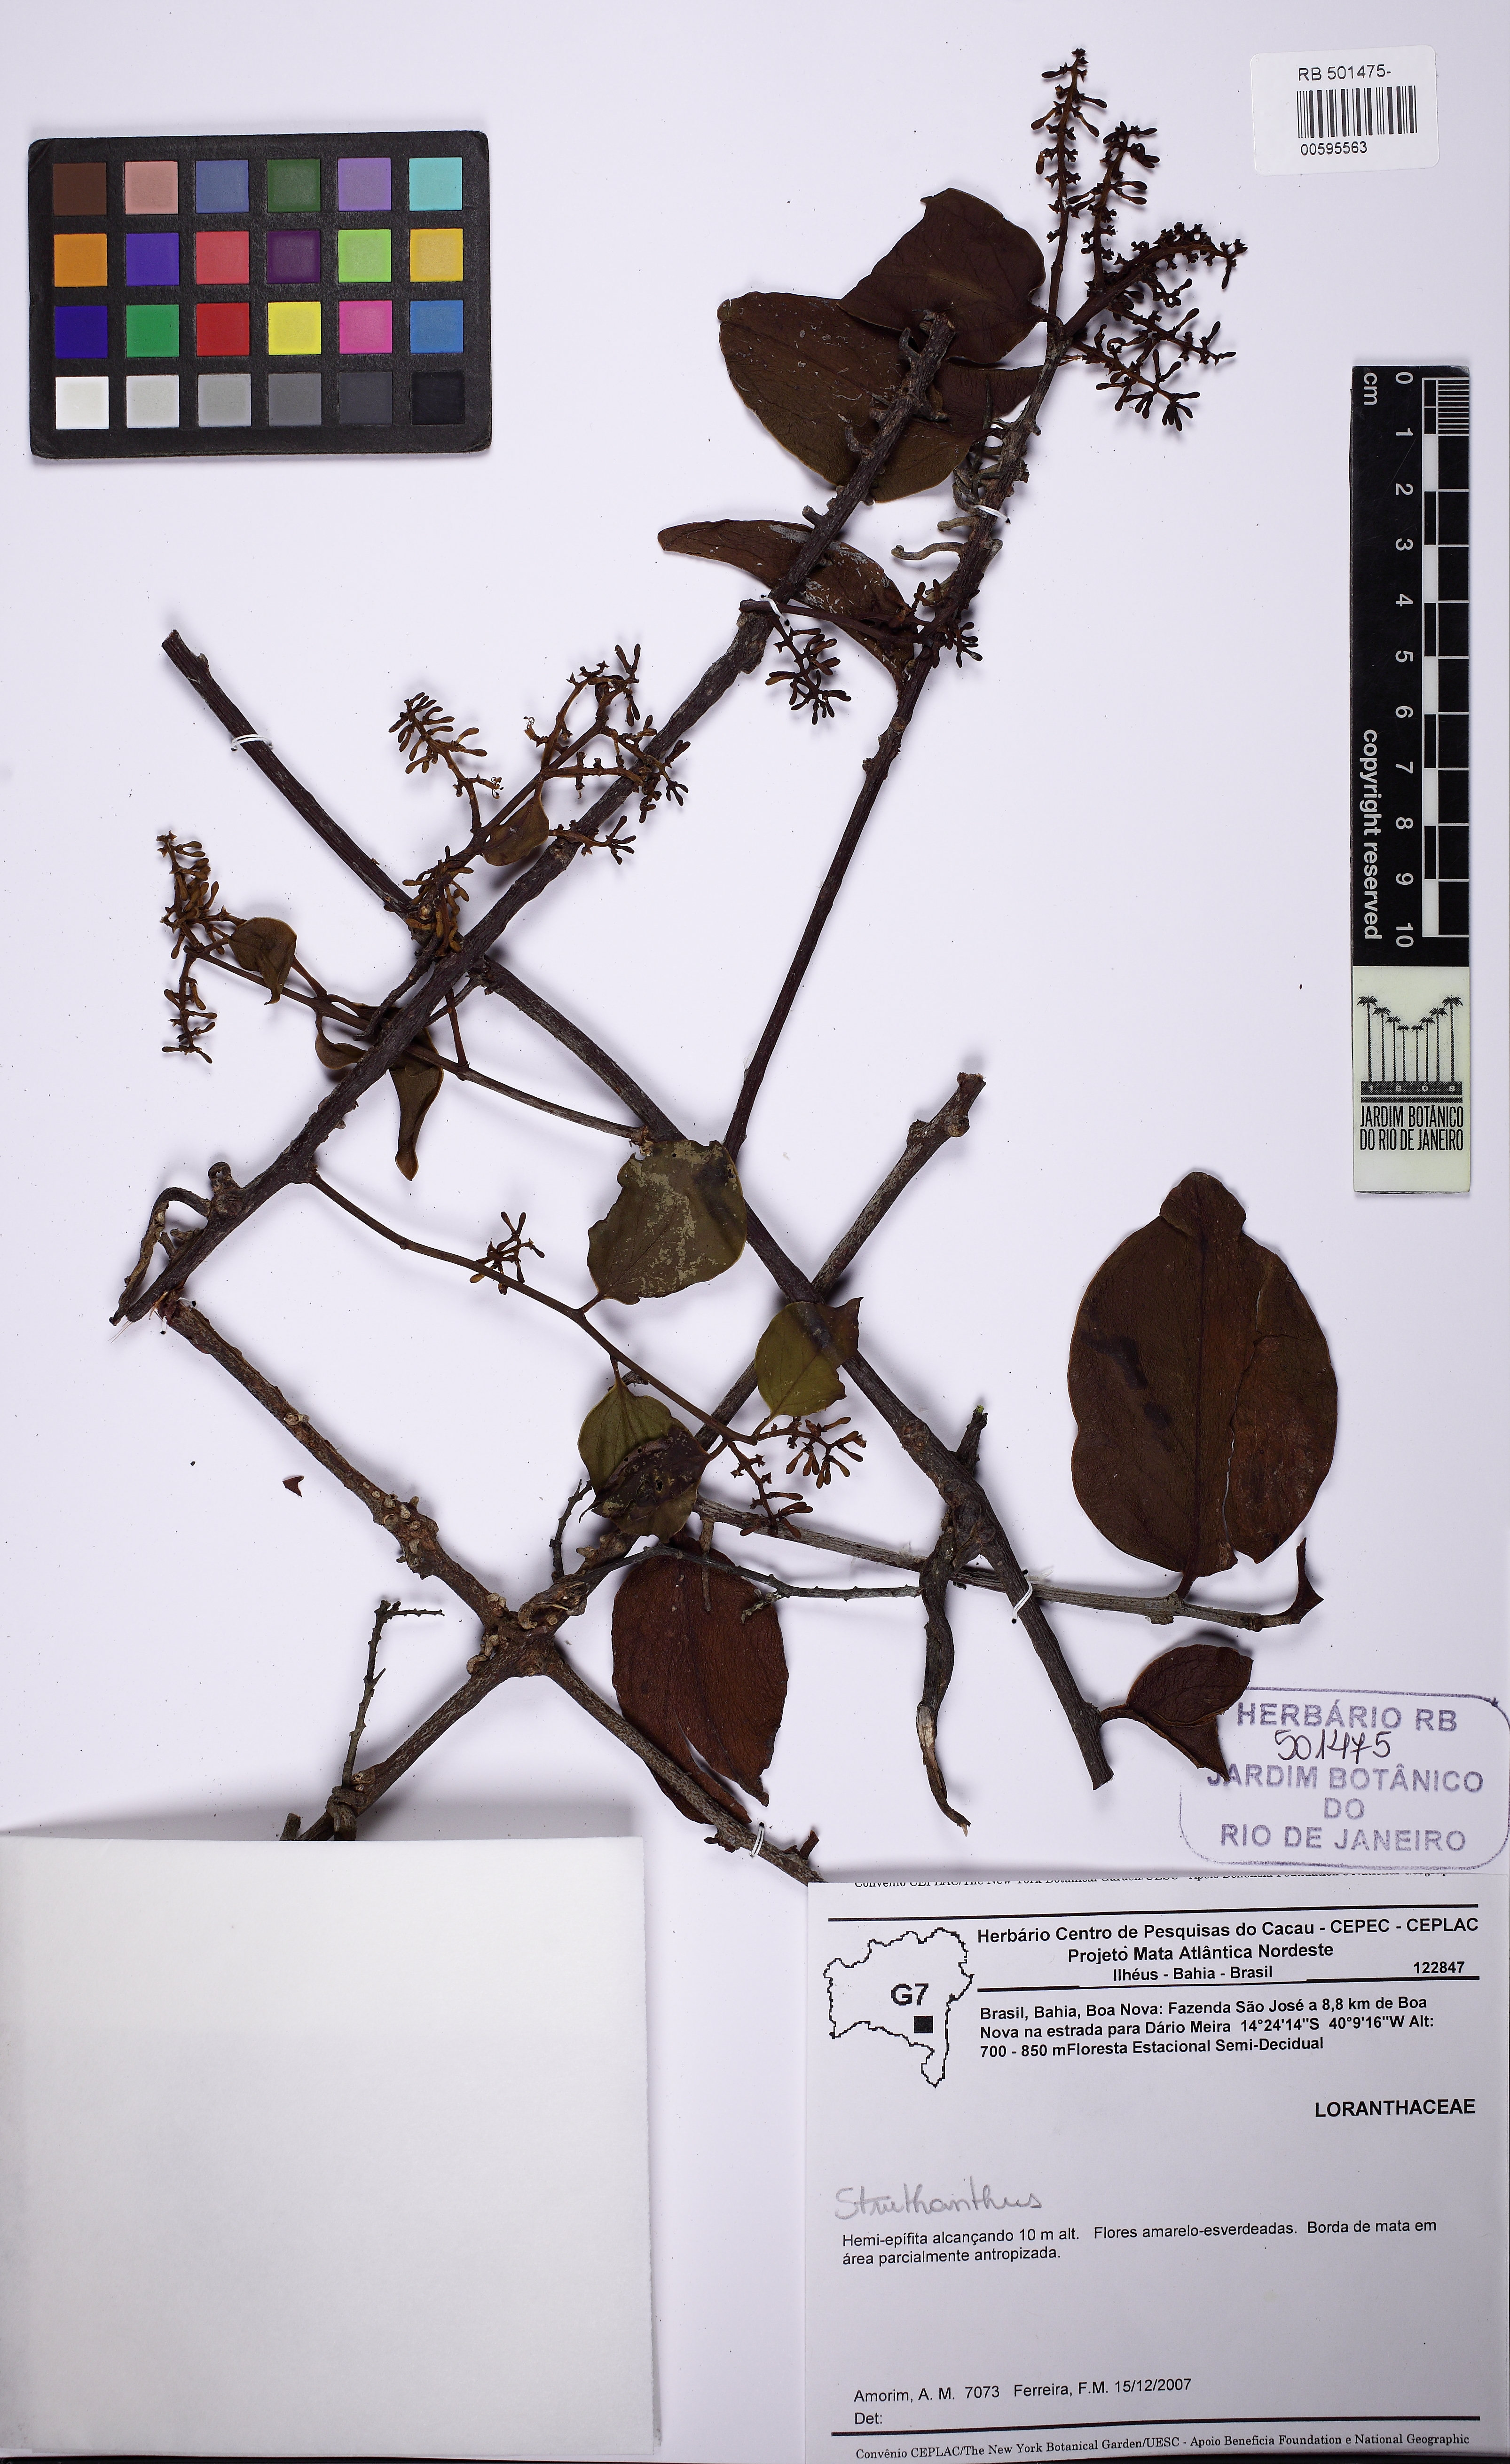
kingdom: Plantae
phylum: Tracheophyta
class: Magnoliopsida
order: Santalales
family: Loranthaceae
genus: Struthanthus
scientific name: Struthanthus
